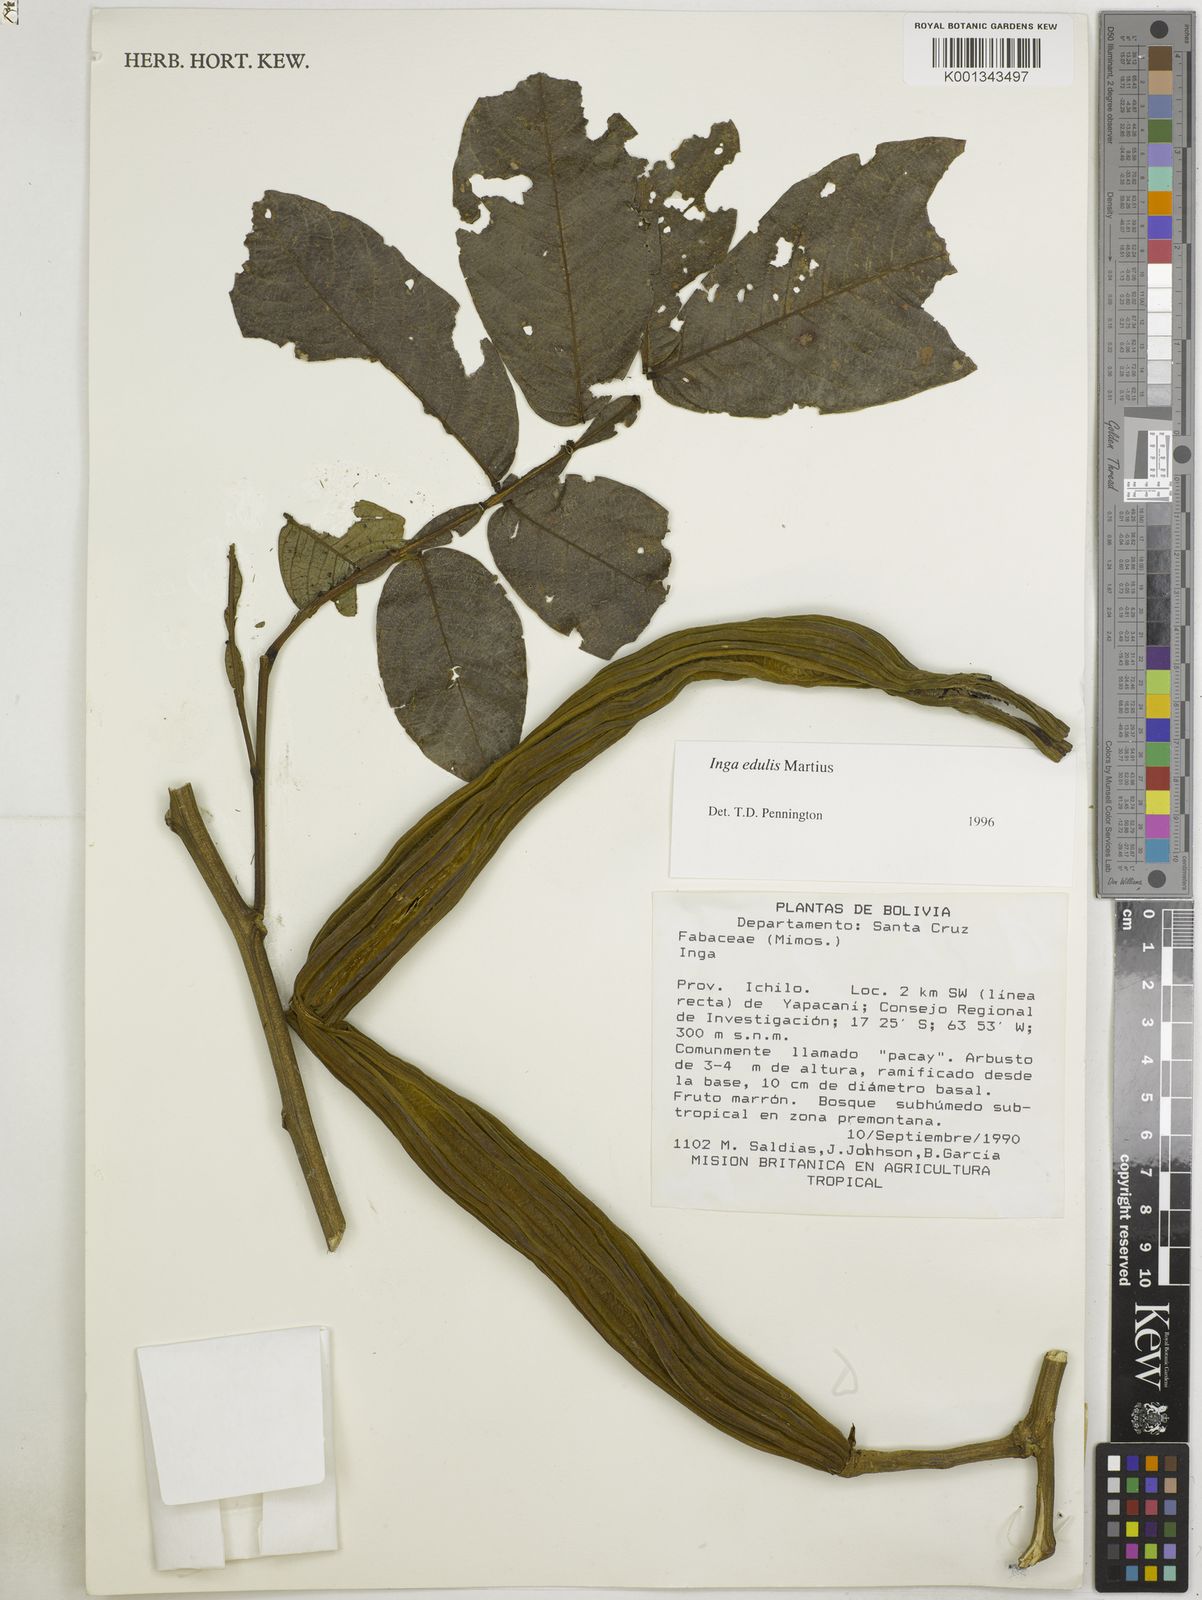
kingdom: Plantae
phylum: Tracheophyta
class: Magnoliopsida
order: Fabales
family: Fabaceae
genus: Inga
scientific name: Inga edulis
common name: Ice cream bean
